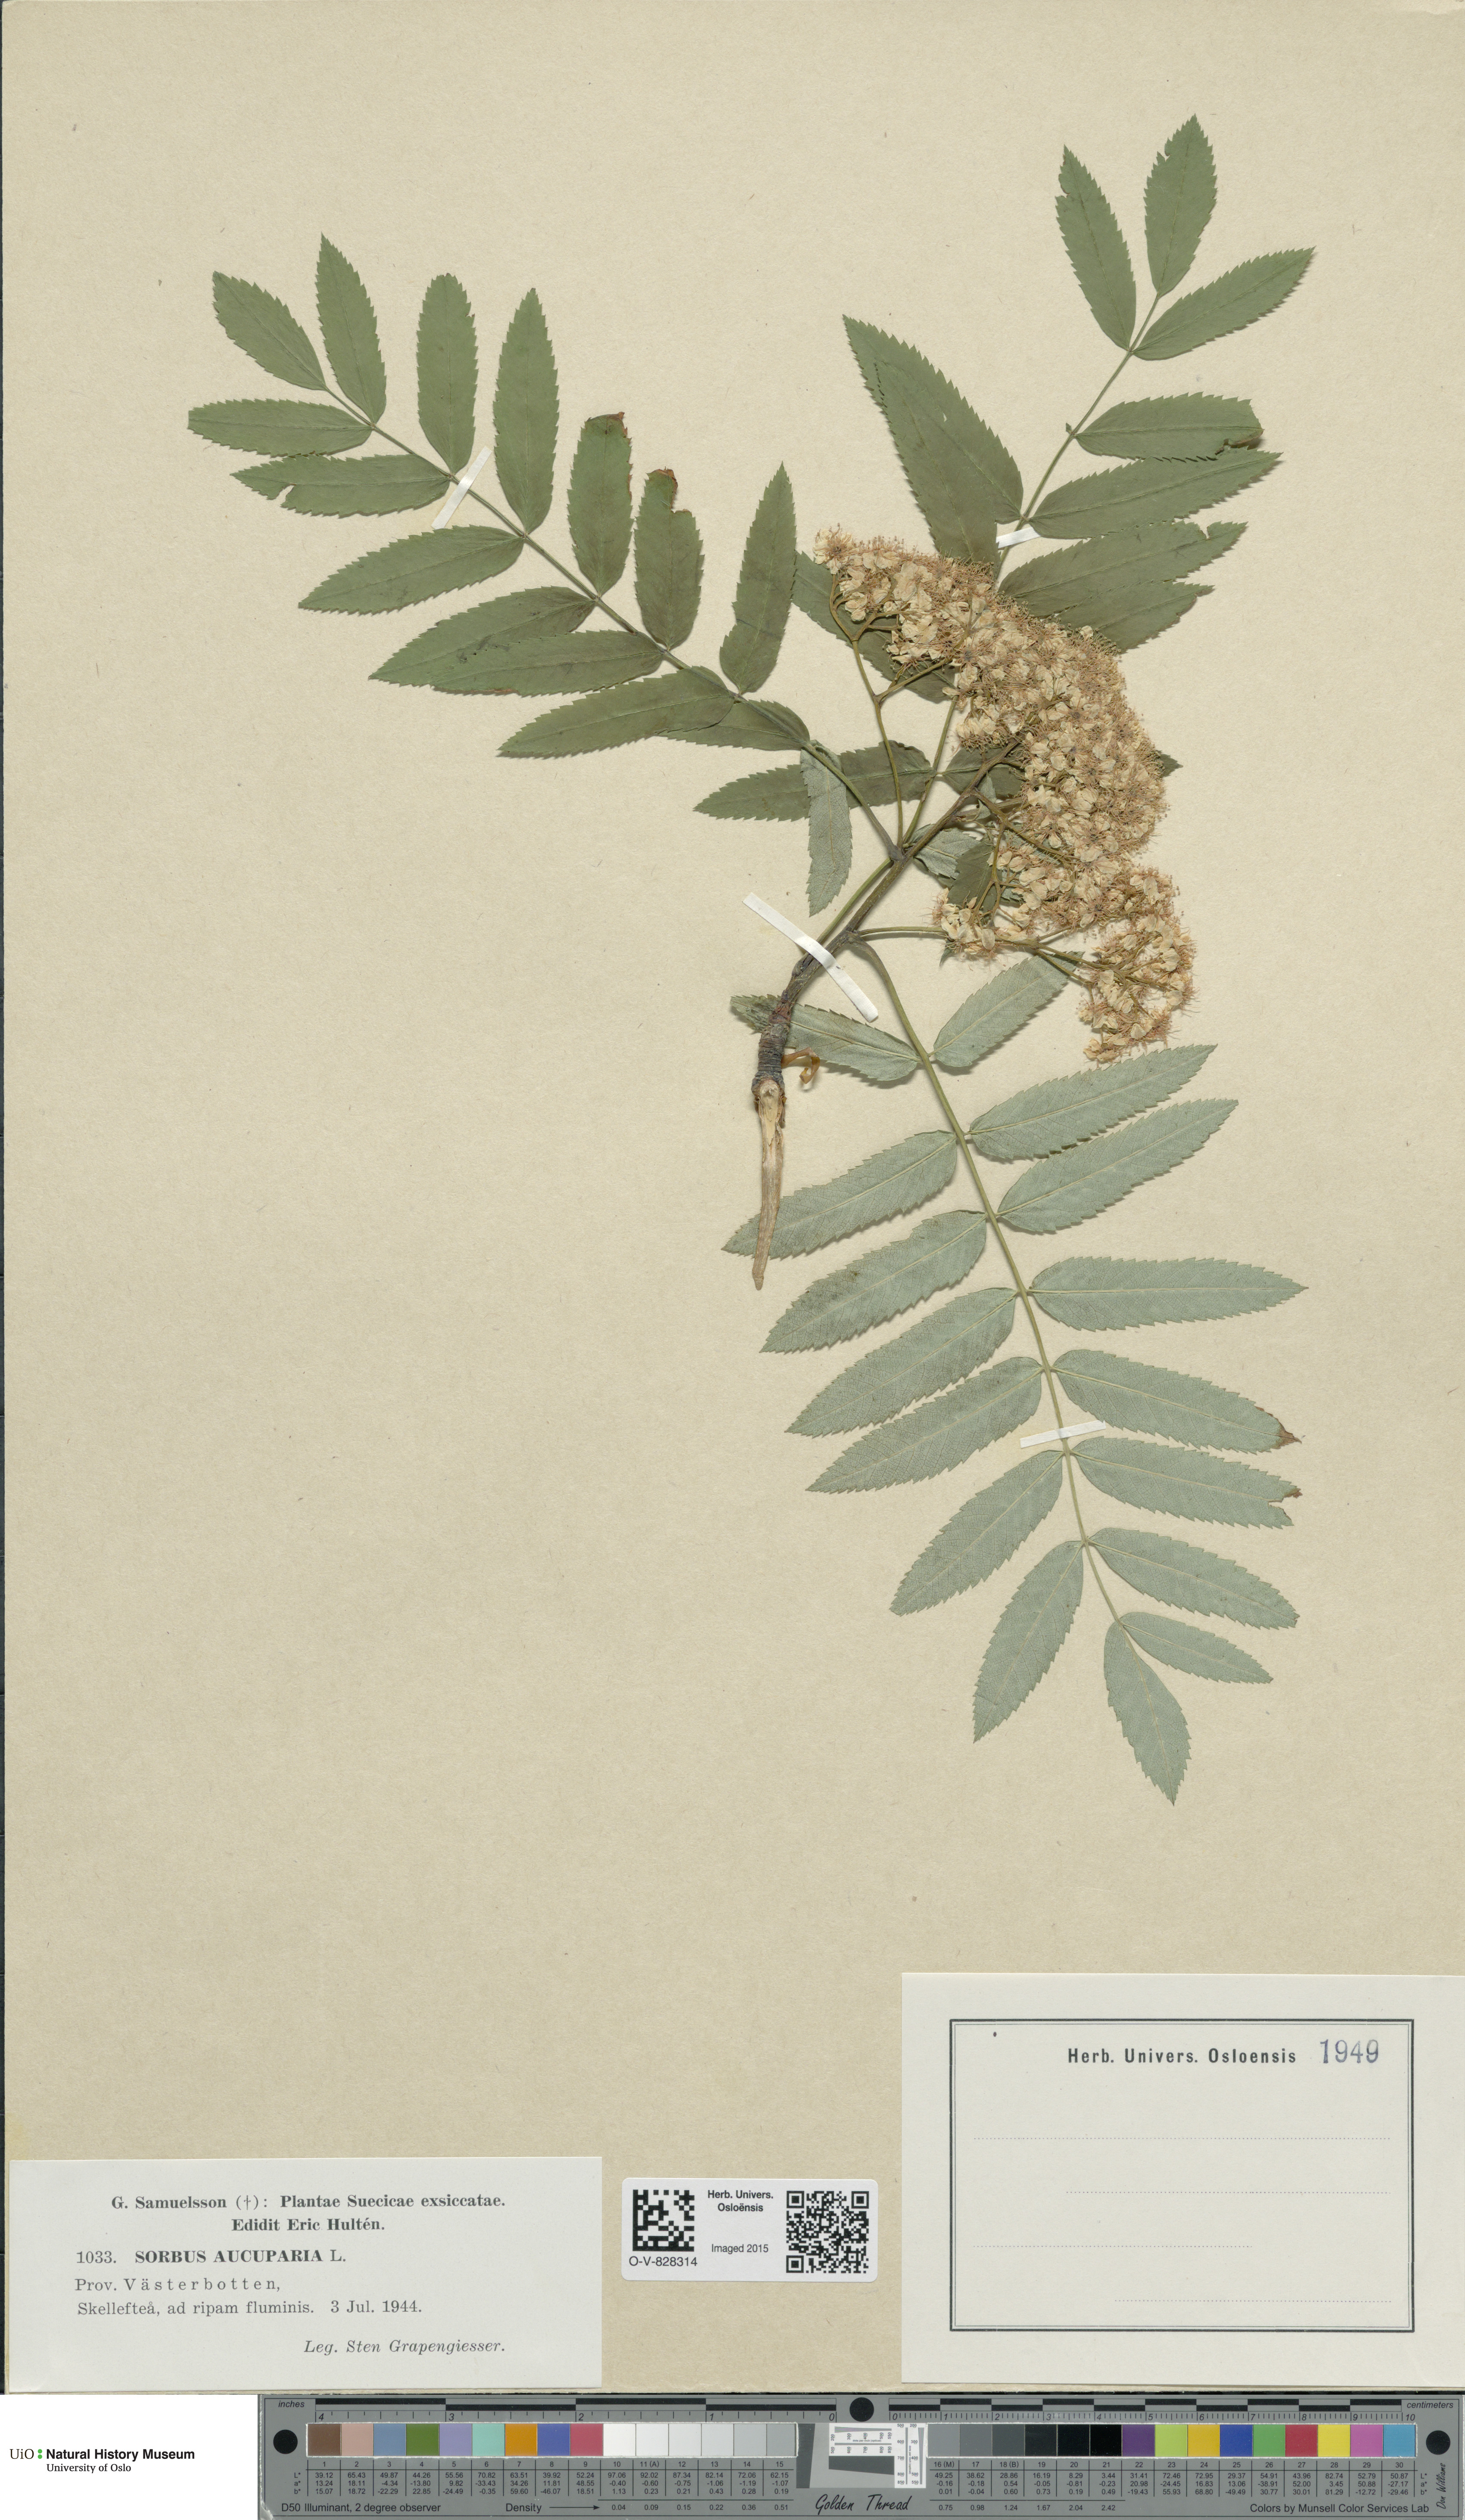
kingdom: Plantae
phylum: Tracheophyta
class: Magnoliopsida
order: Rosales
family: Rosaceae
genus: Sorbus
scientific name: Sorbus aucuparia
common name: Rowan
